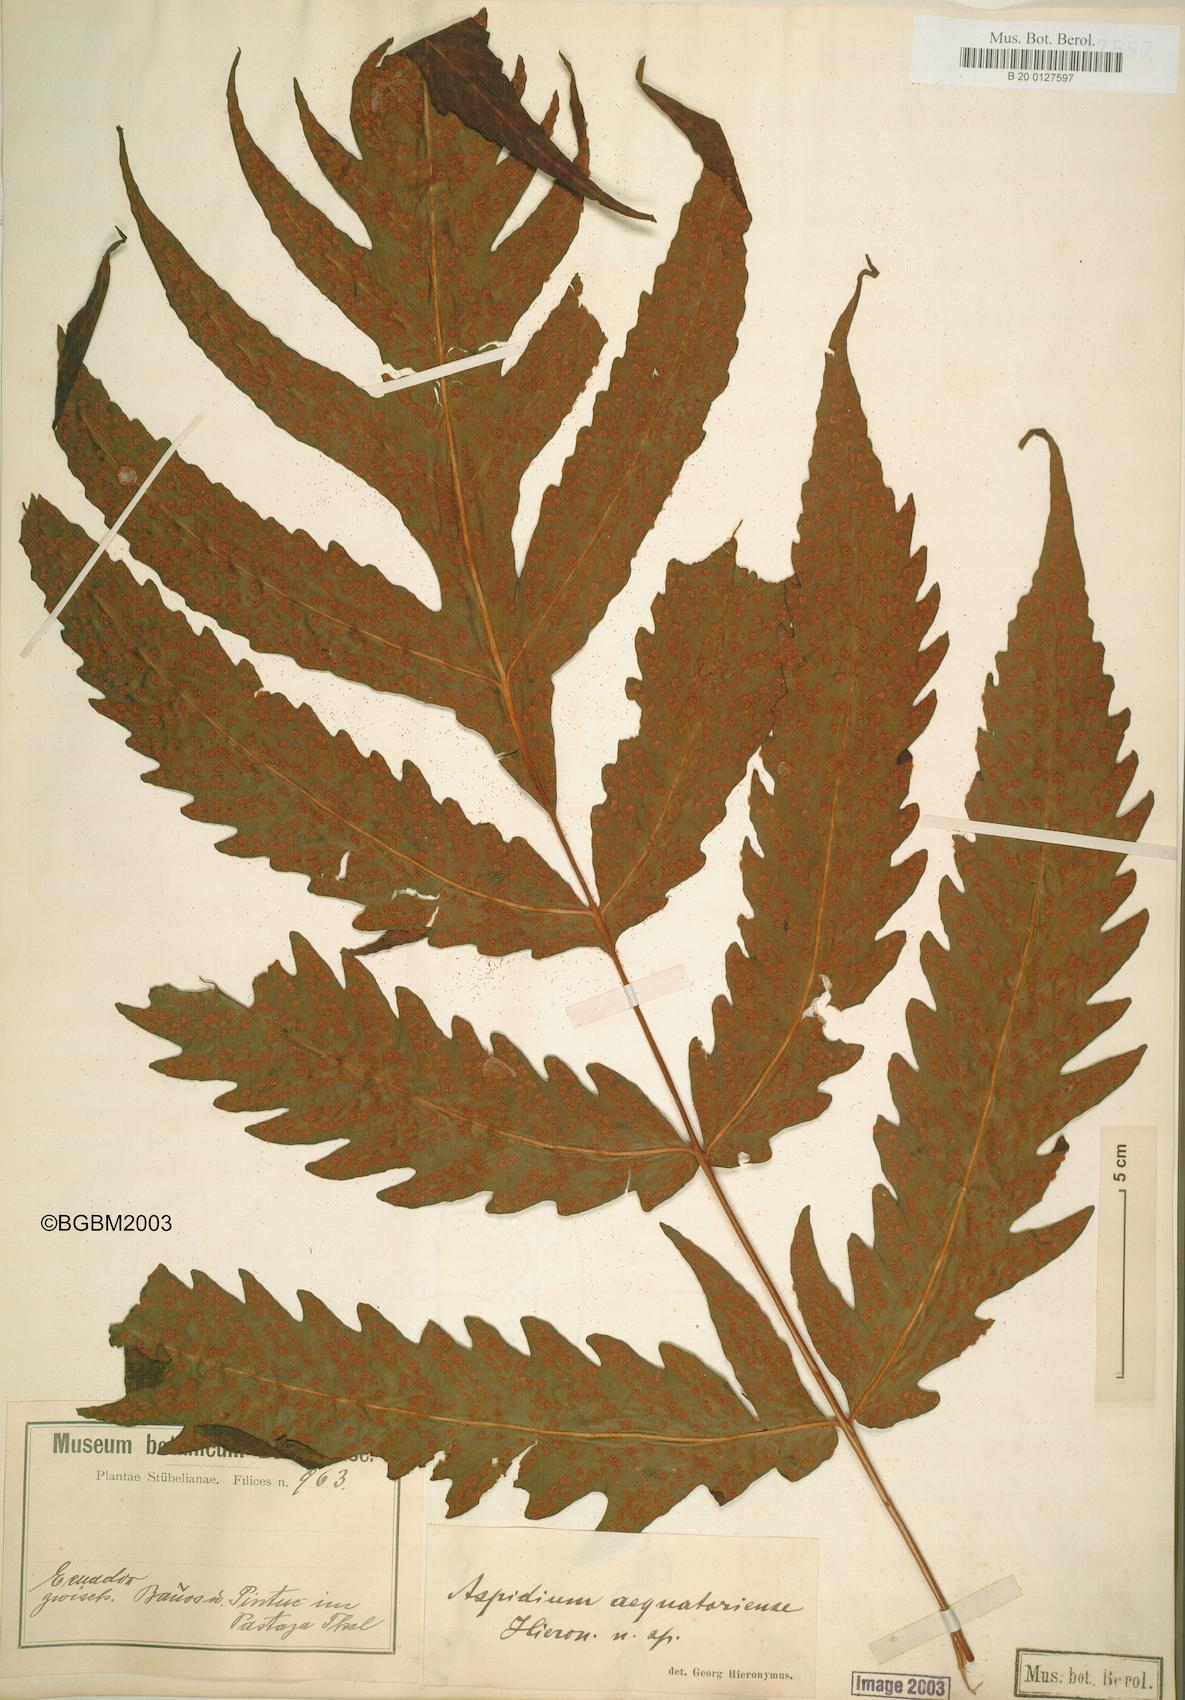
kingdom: Plantae
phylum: Tracheophyta
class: Polypodiopsida
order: Polypodiales
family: Tectariaceae
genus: Tectaria
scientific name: Tectaria aequatoriensis
